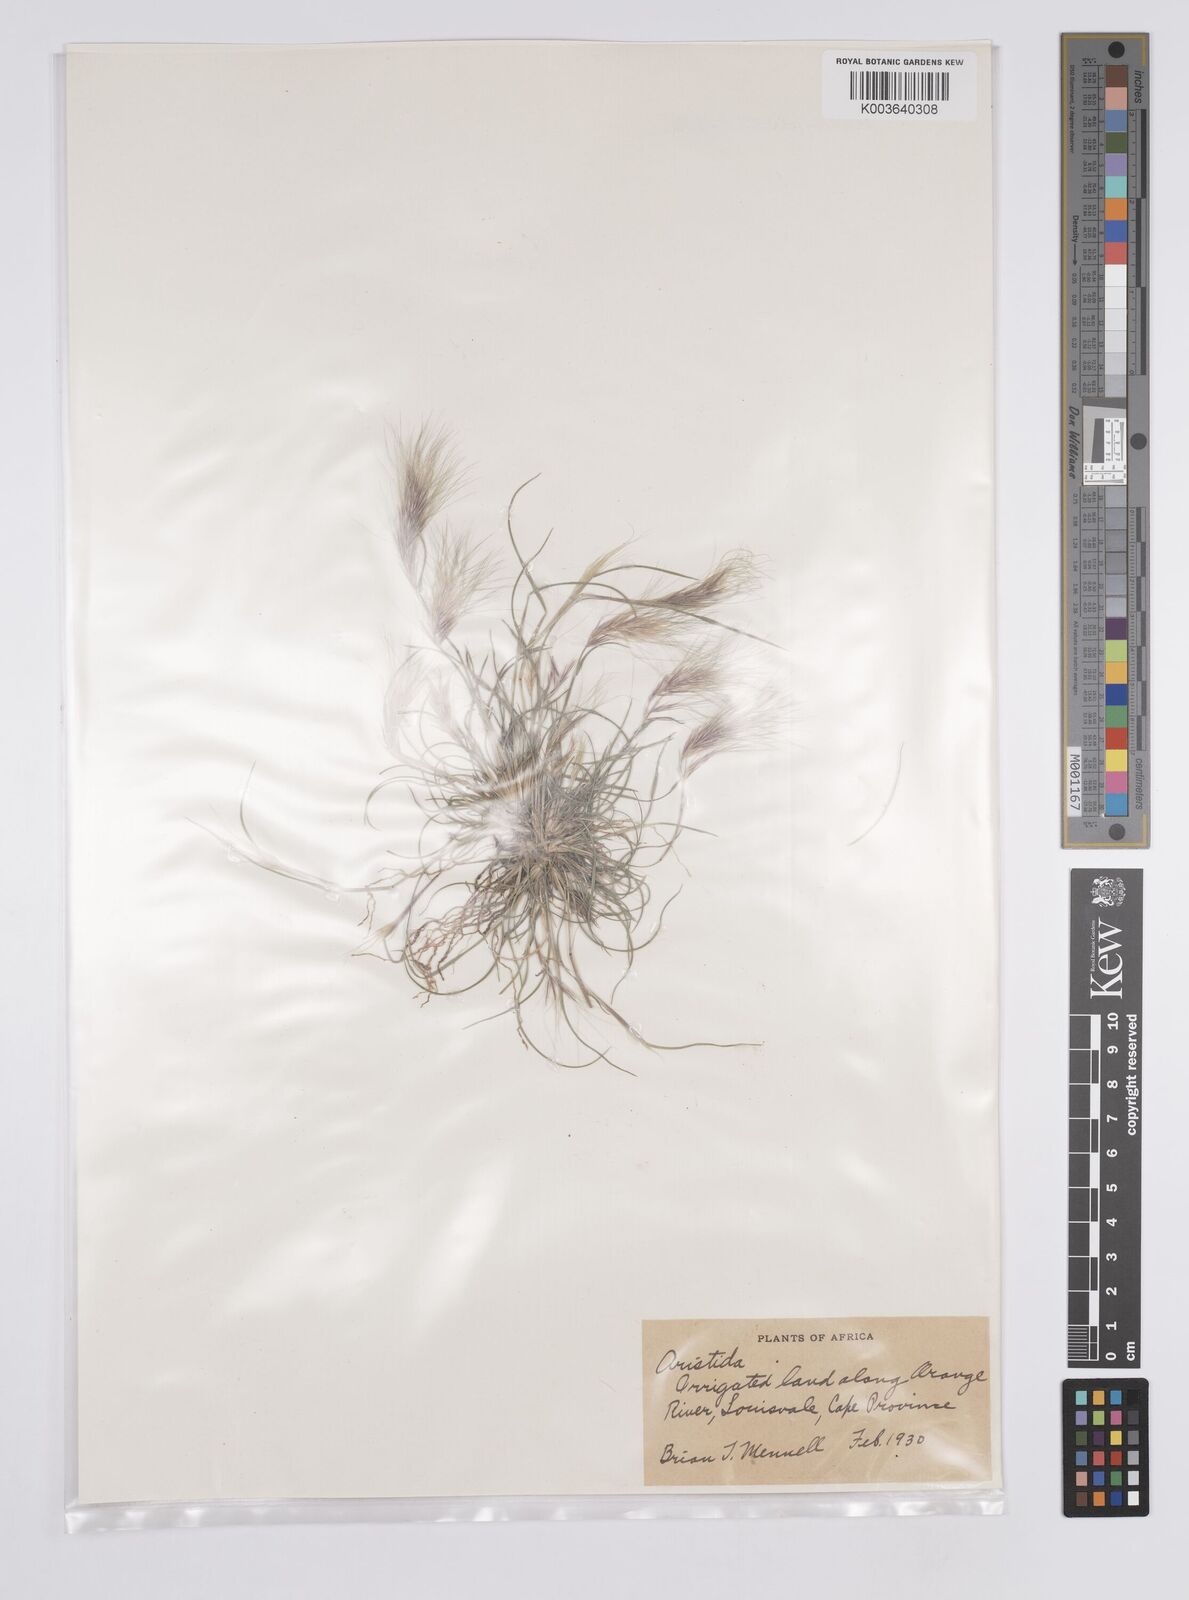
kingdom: Plantae
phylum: Tracheophyta
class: Liliopsida
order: Poales
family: Poaceae
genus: Aristida
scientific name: Aristida congesta
